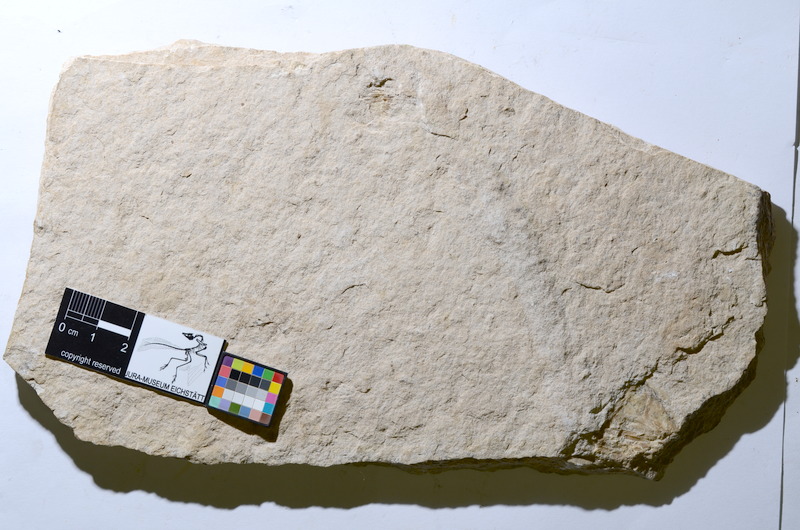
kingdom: Animalia
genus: Piscis
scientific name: Piscis
